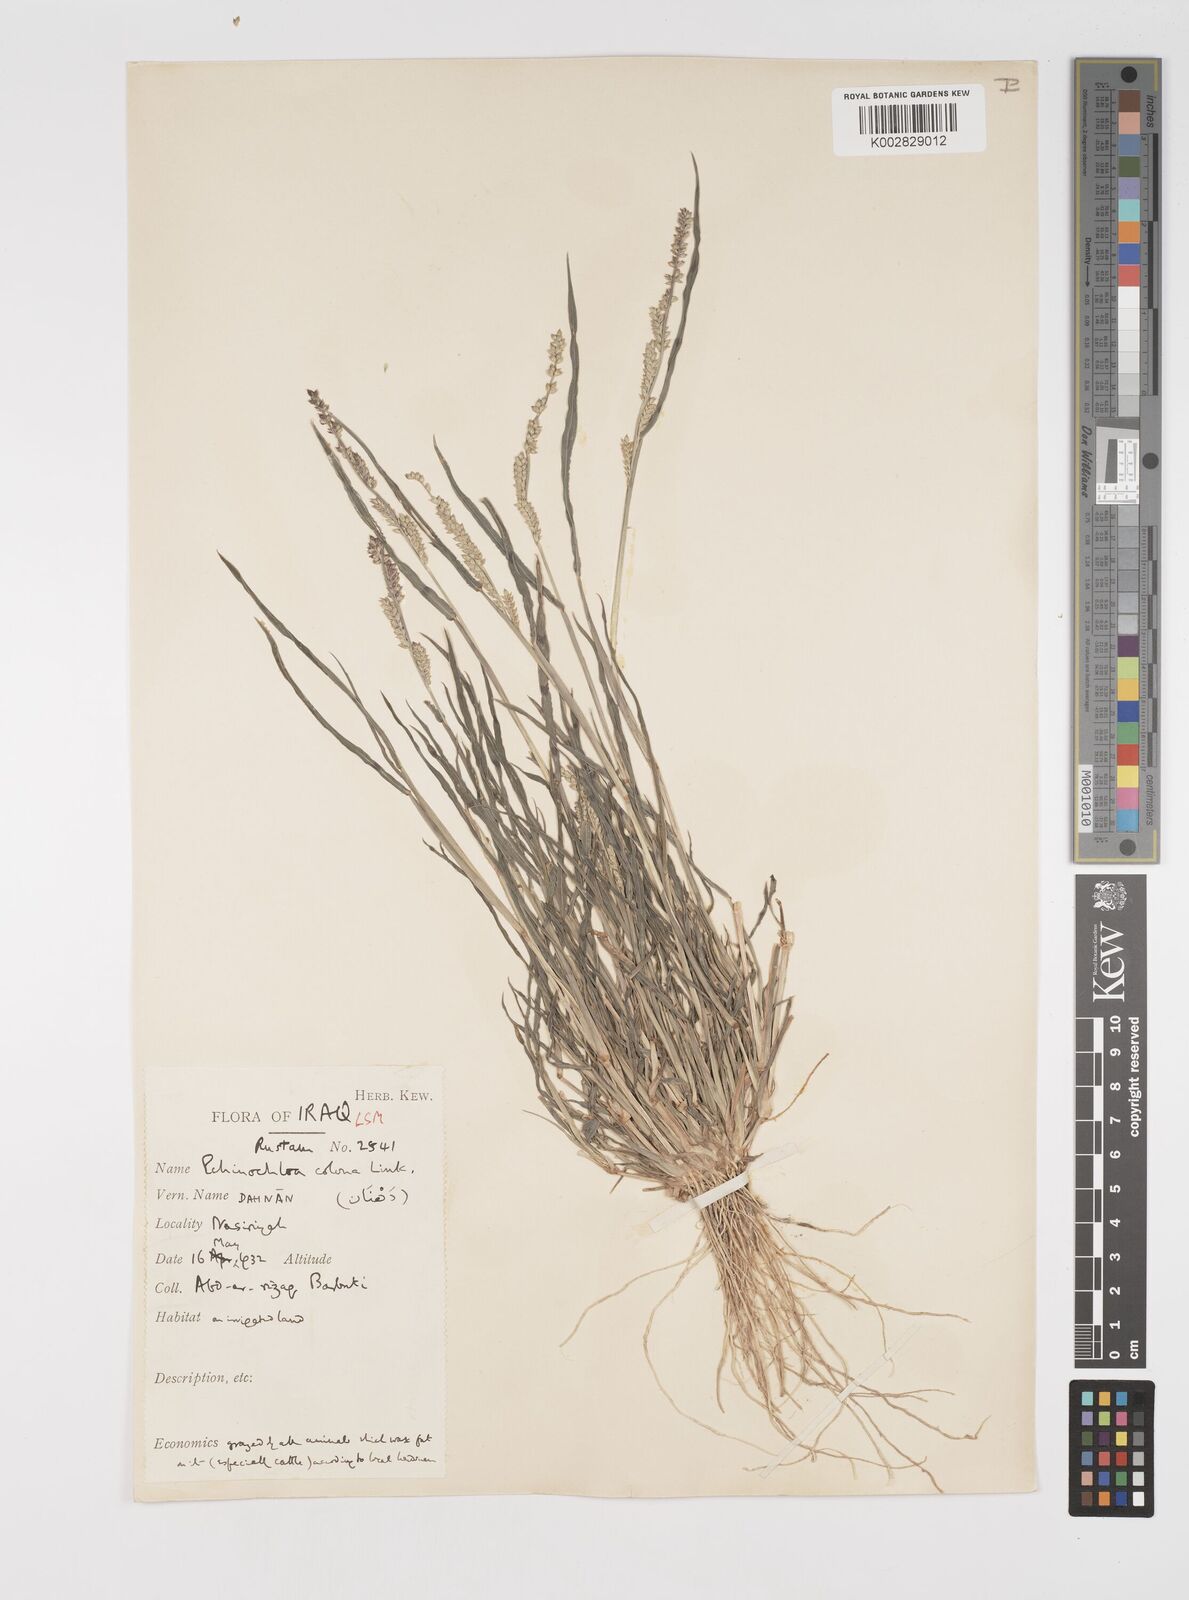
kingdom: Plantae
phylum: Tracheophyta
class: Liliopsida
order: Poales
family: Poaceae
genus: Echinochloa
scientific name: Echinochloa colonum
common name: Jungle rice
